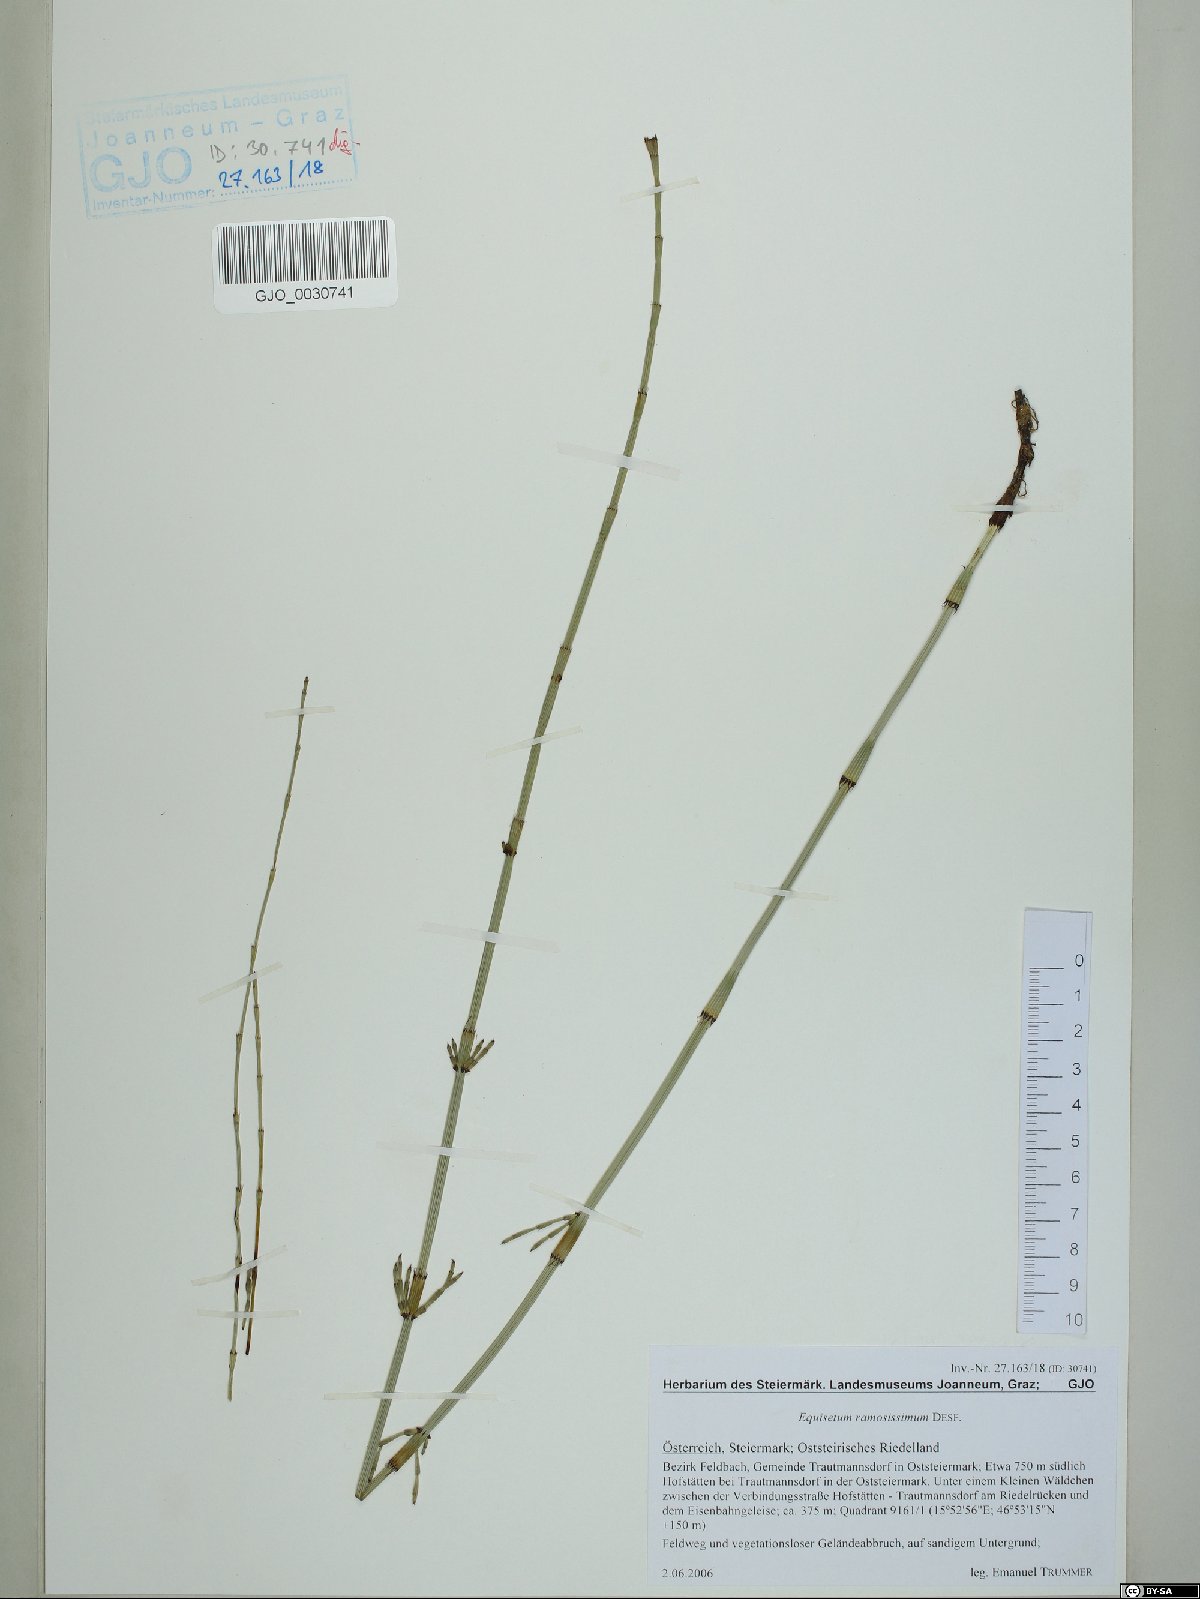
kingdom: Plantae
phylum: Tracheophyta
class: Polypodiopsida
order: Equisetales
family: Equisetaceae
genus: Equisetum
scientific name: Equisetum ramosissimum
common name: Branched horsetail
